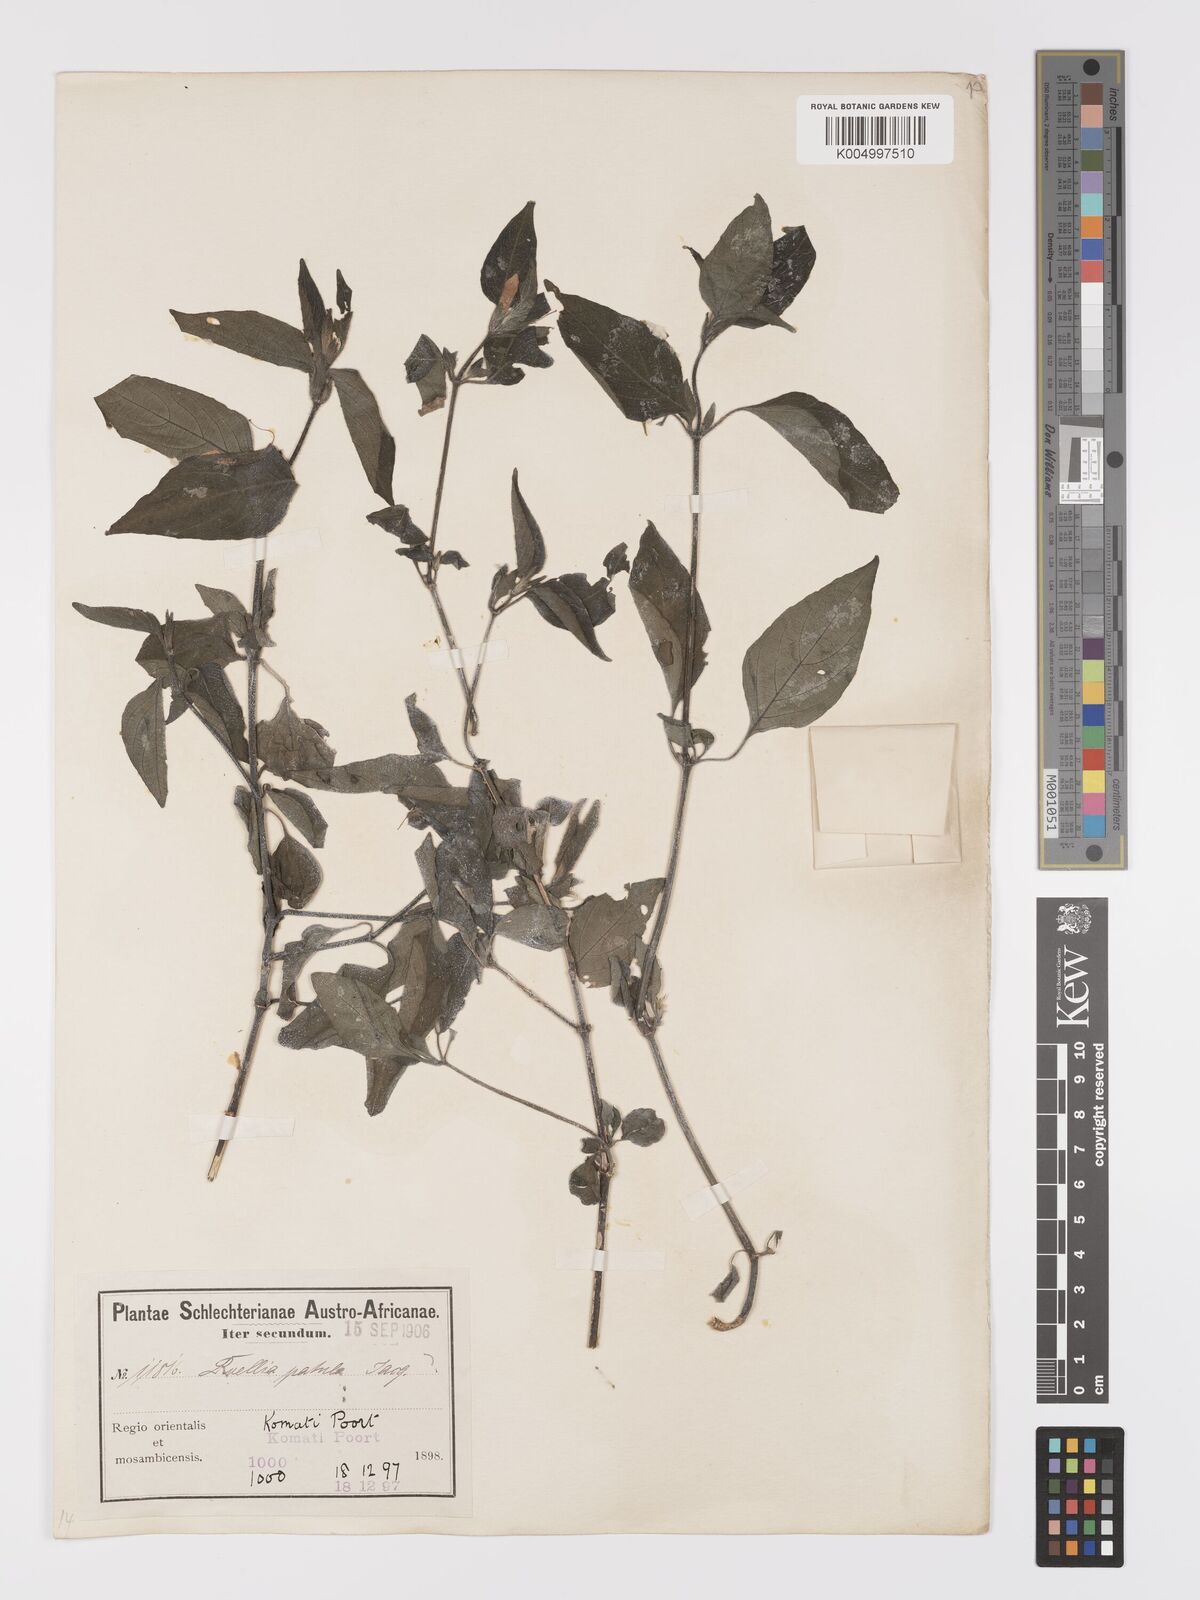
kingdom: Plantae
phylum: Tracheophyta
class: Magnoliopsida
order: Lamiales
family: Acanthaceae
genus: Ruellia
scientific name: Ruellia
